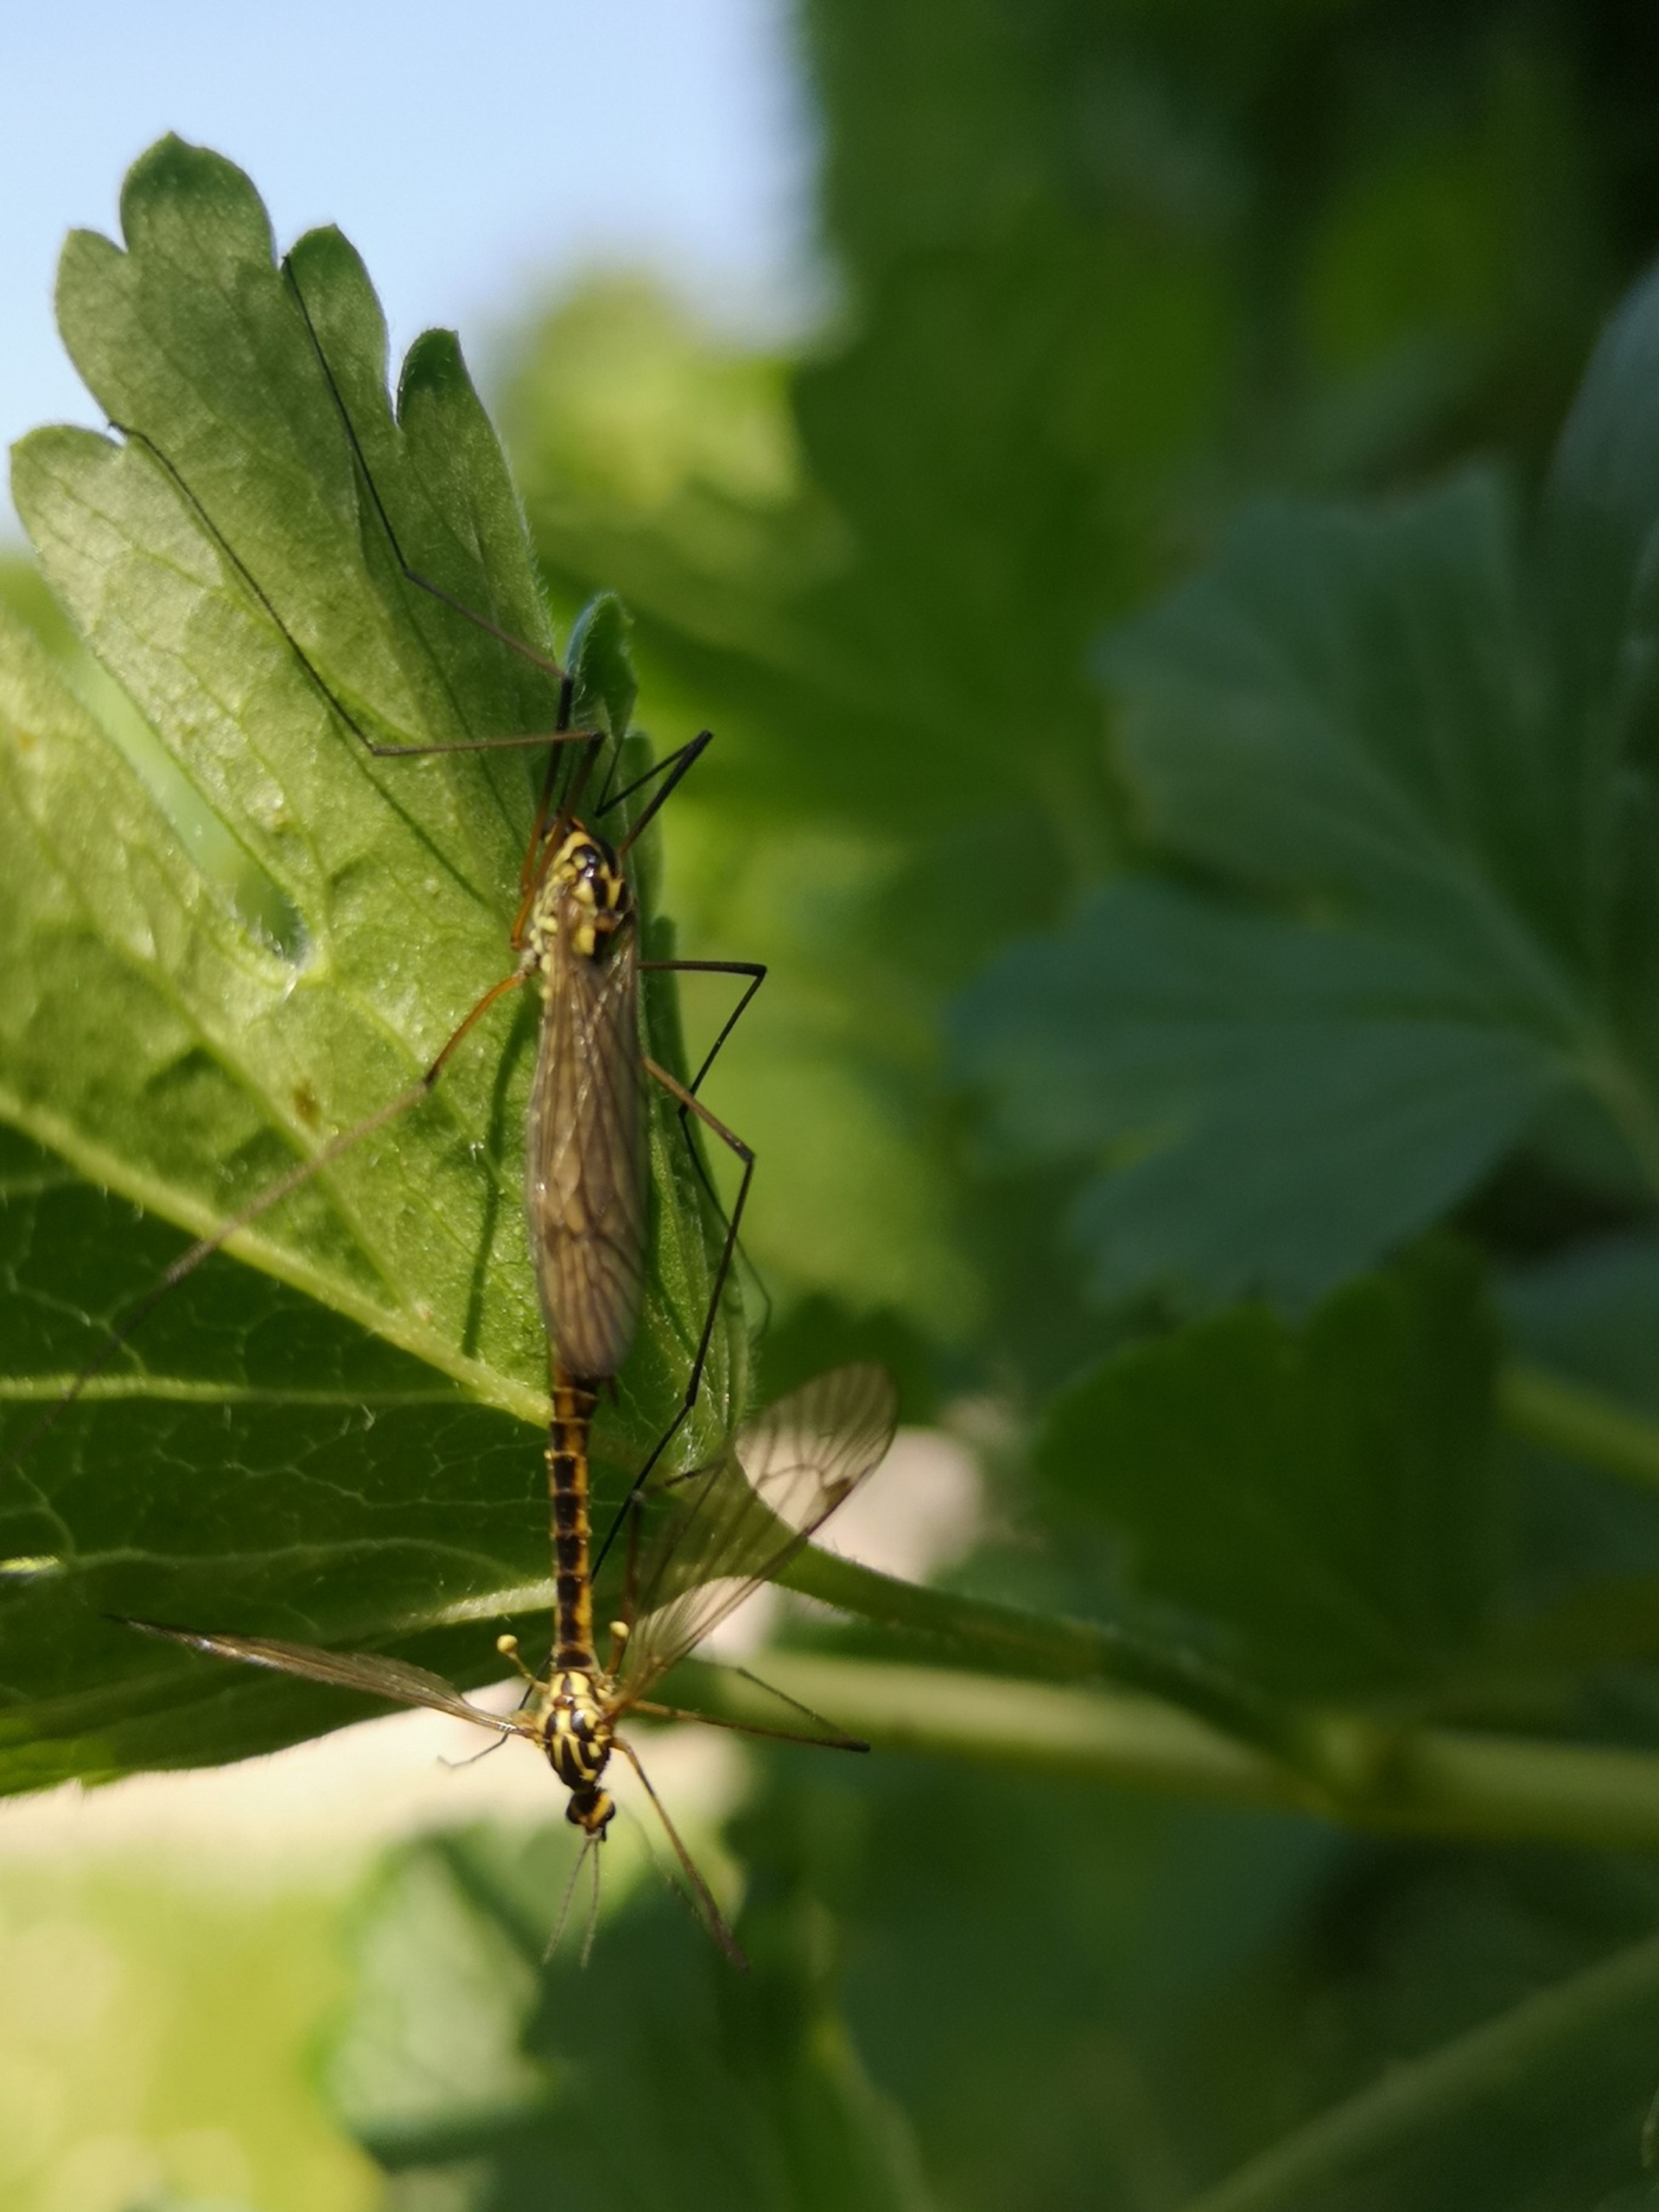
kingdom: Animalia
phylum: Arthropoda
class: Insecta
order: Diptera
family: Tipulidae
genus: Nephrotoma
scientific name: Nephrotoma appendiculata
